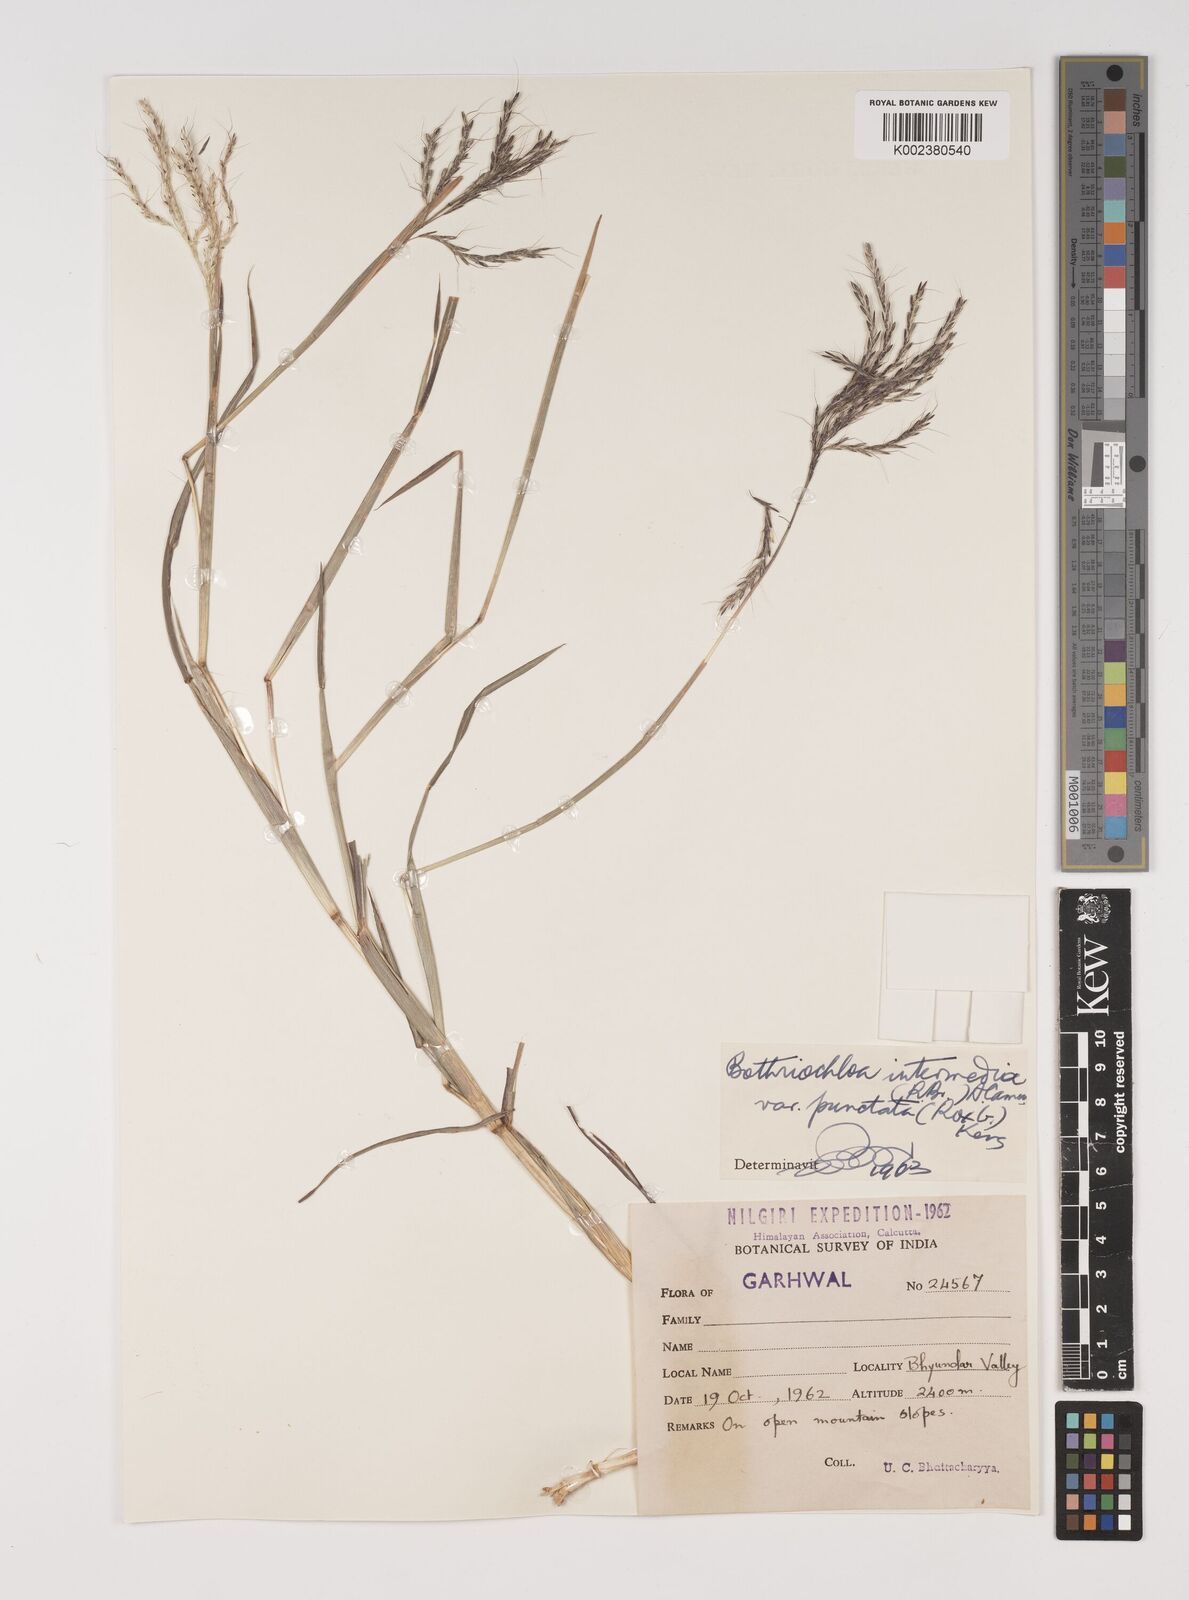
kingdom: Plantae
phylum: Tracheophyta
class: Liliopsida
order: Poales
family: Poaceae
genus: Bothriochloa
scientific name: Bothriochloa bladhii
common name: Caucasian bluestem
